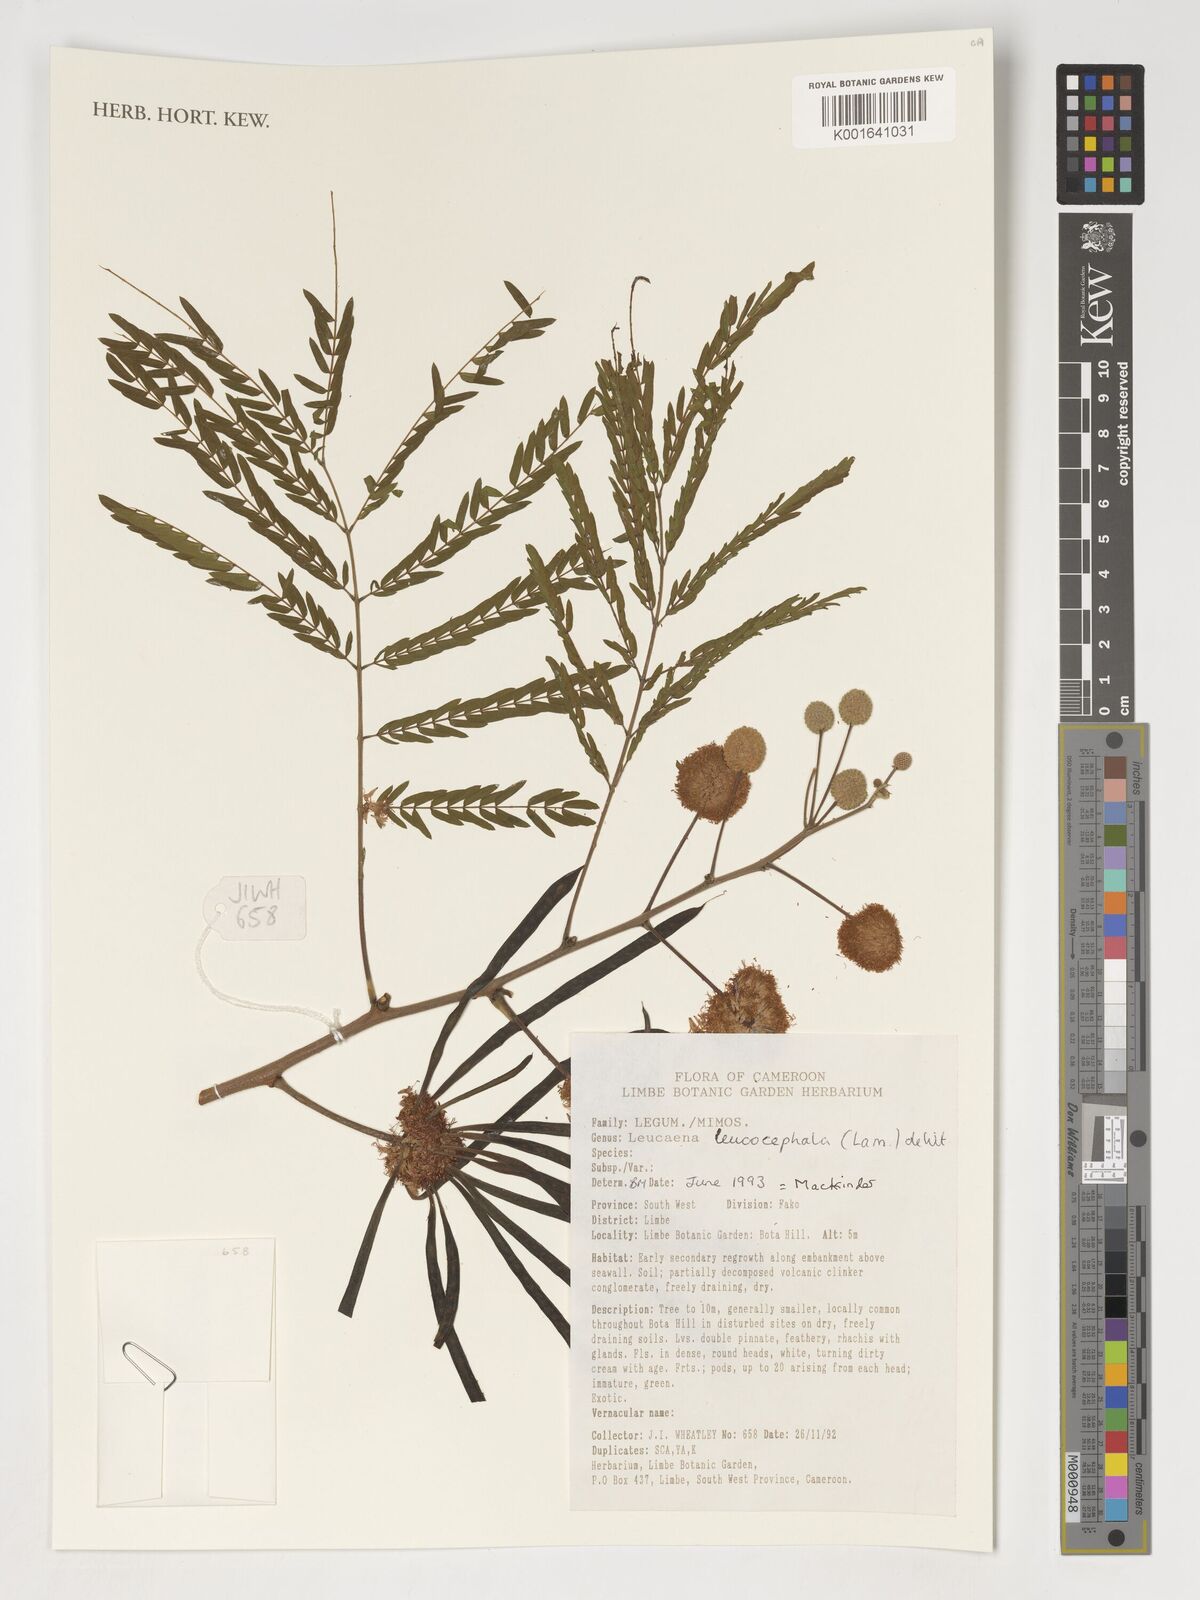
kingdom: Plantae
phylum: Tracheophyta
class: Magnoliopsida
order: Fabales
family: Fabaceae
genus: Leucaena
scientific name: Leucaena leucocephala
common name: White leadtree
